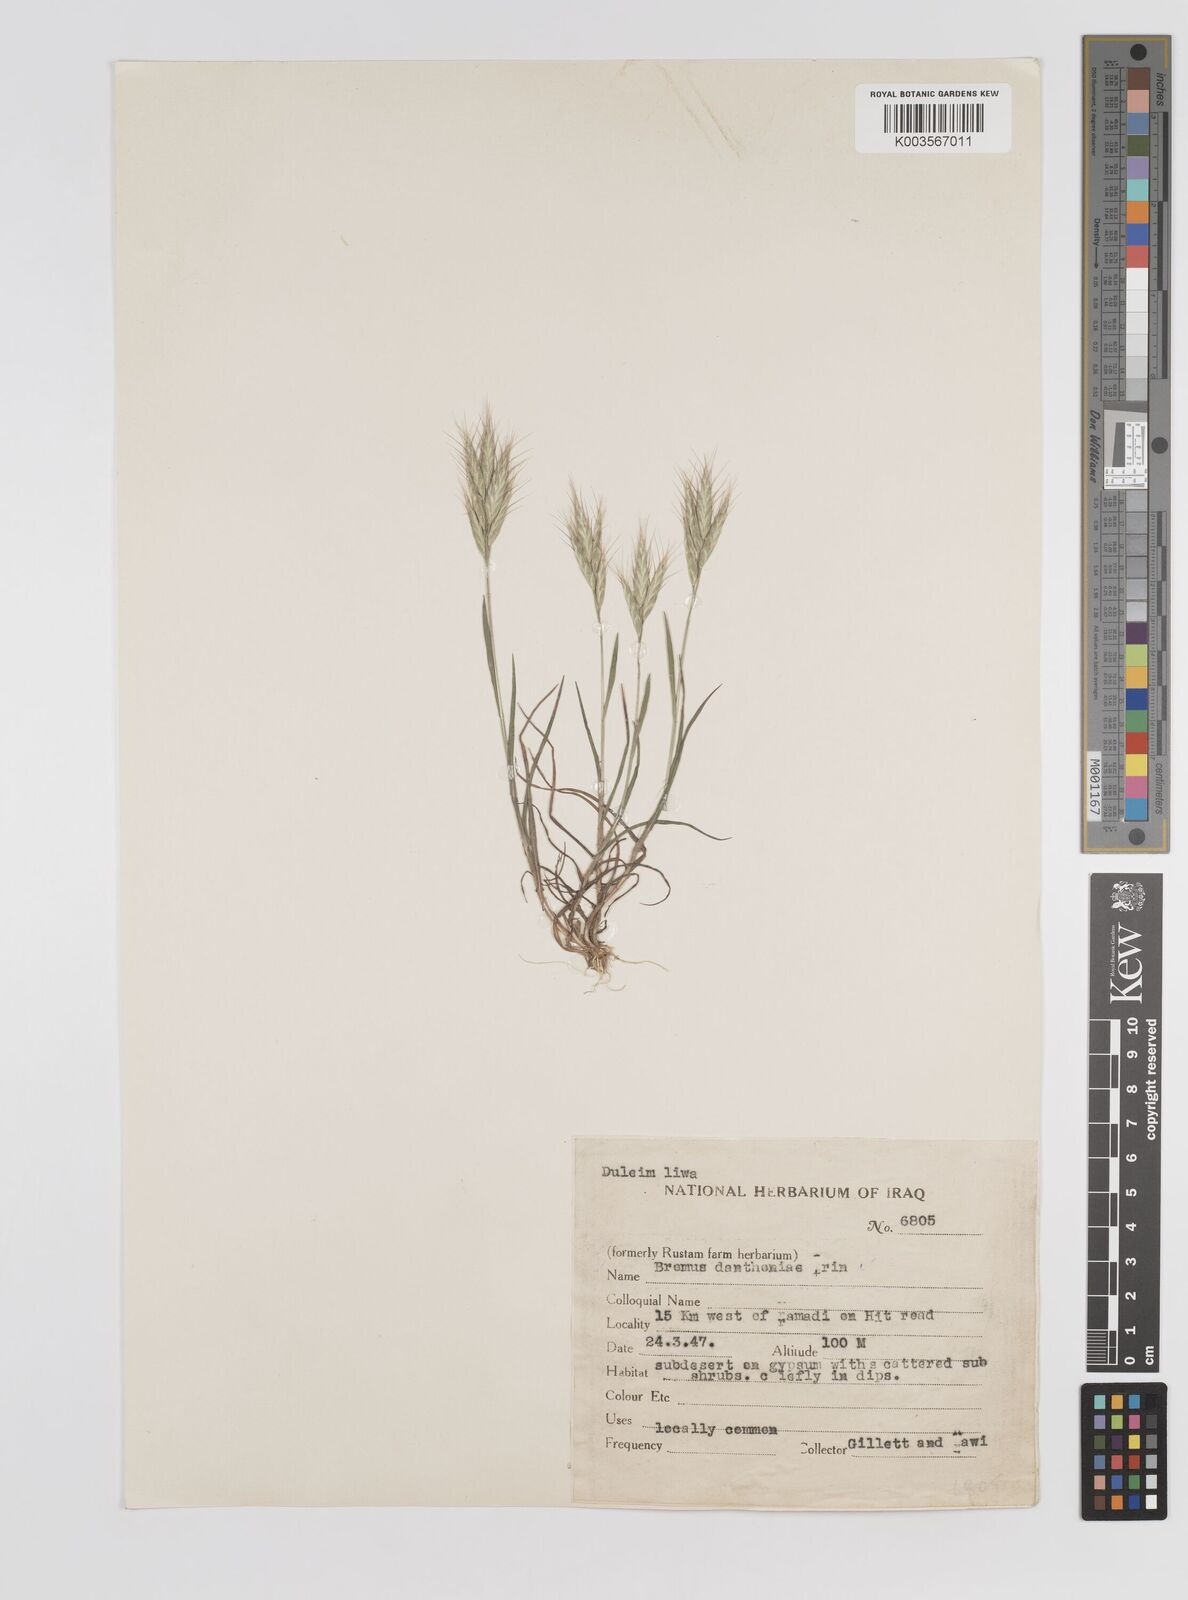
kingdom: Plantae
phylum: Tracheophyta
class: Liliopsida
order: Poales
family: Poaceae
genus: Bromus
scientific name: Bromus danthoniae
